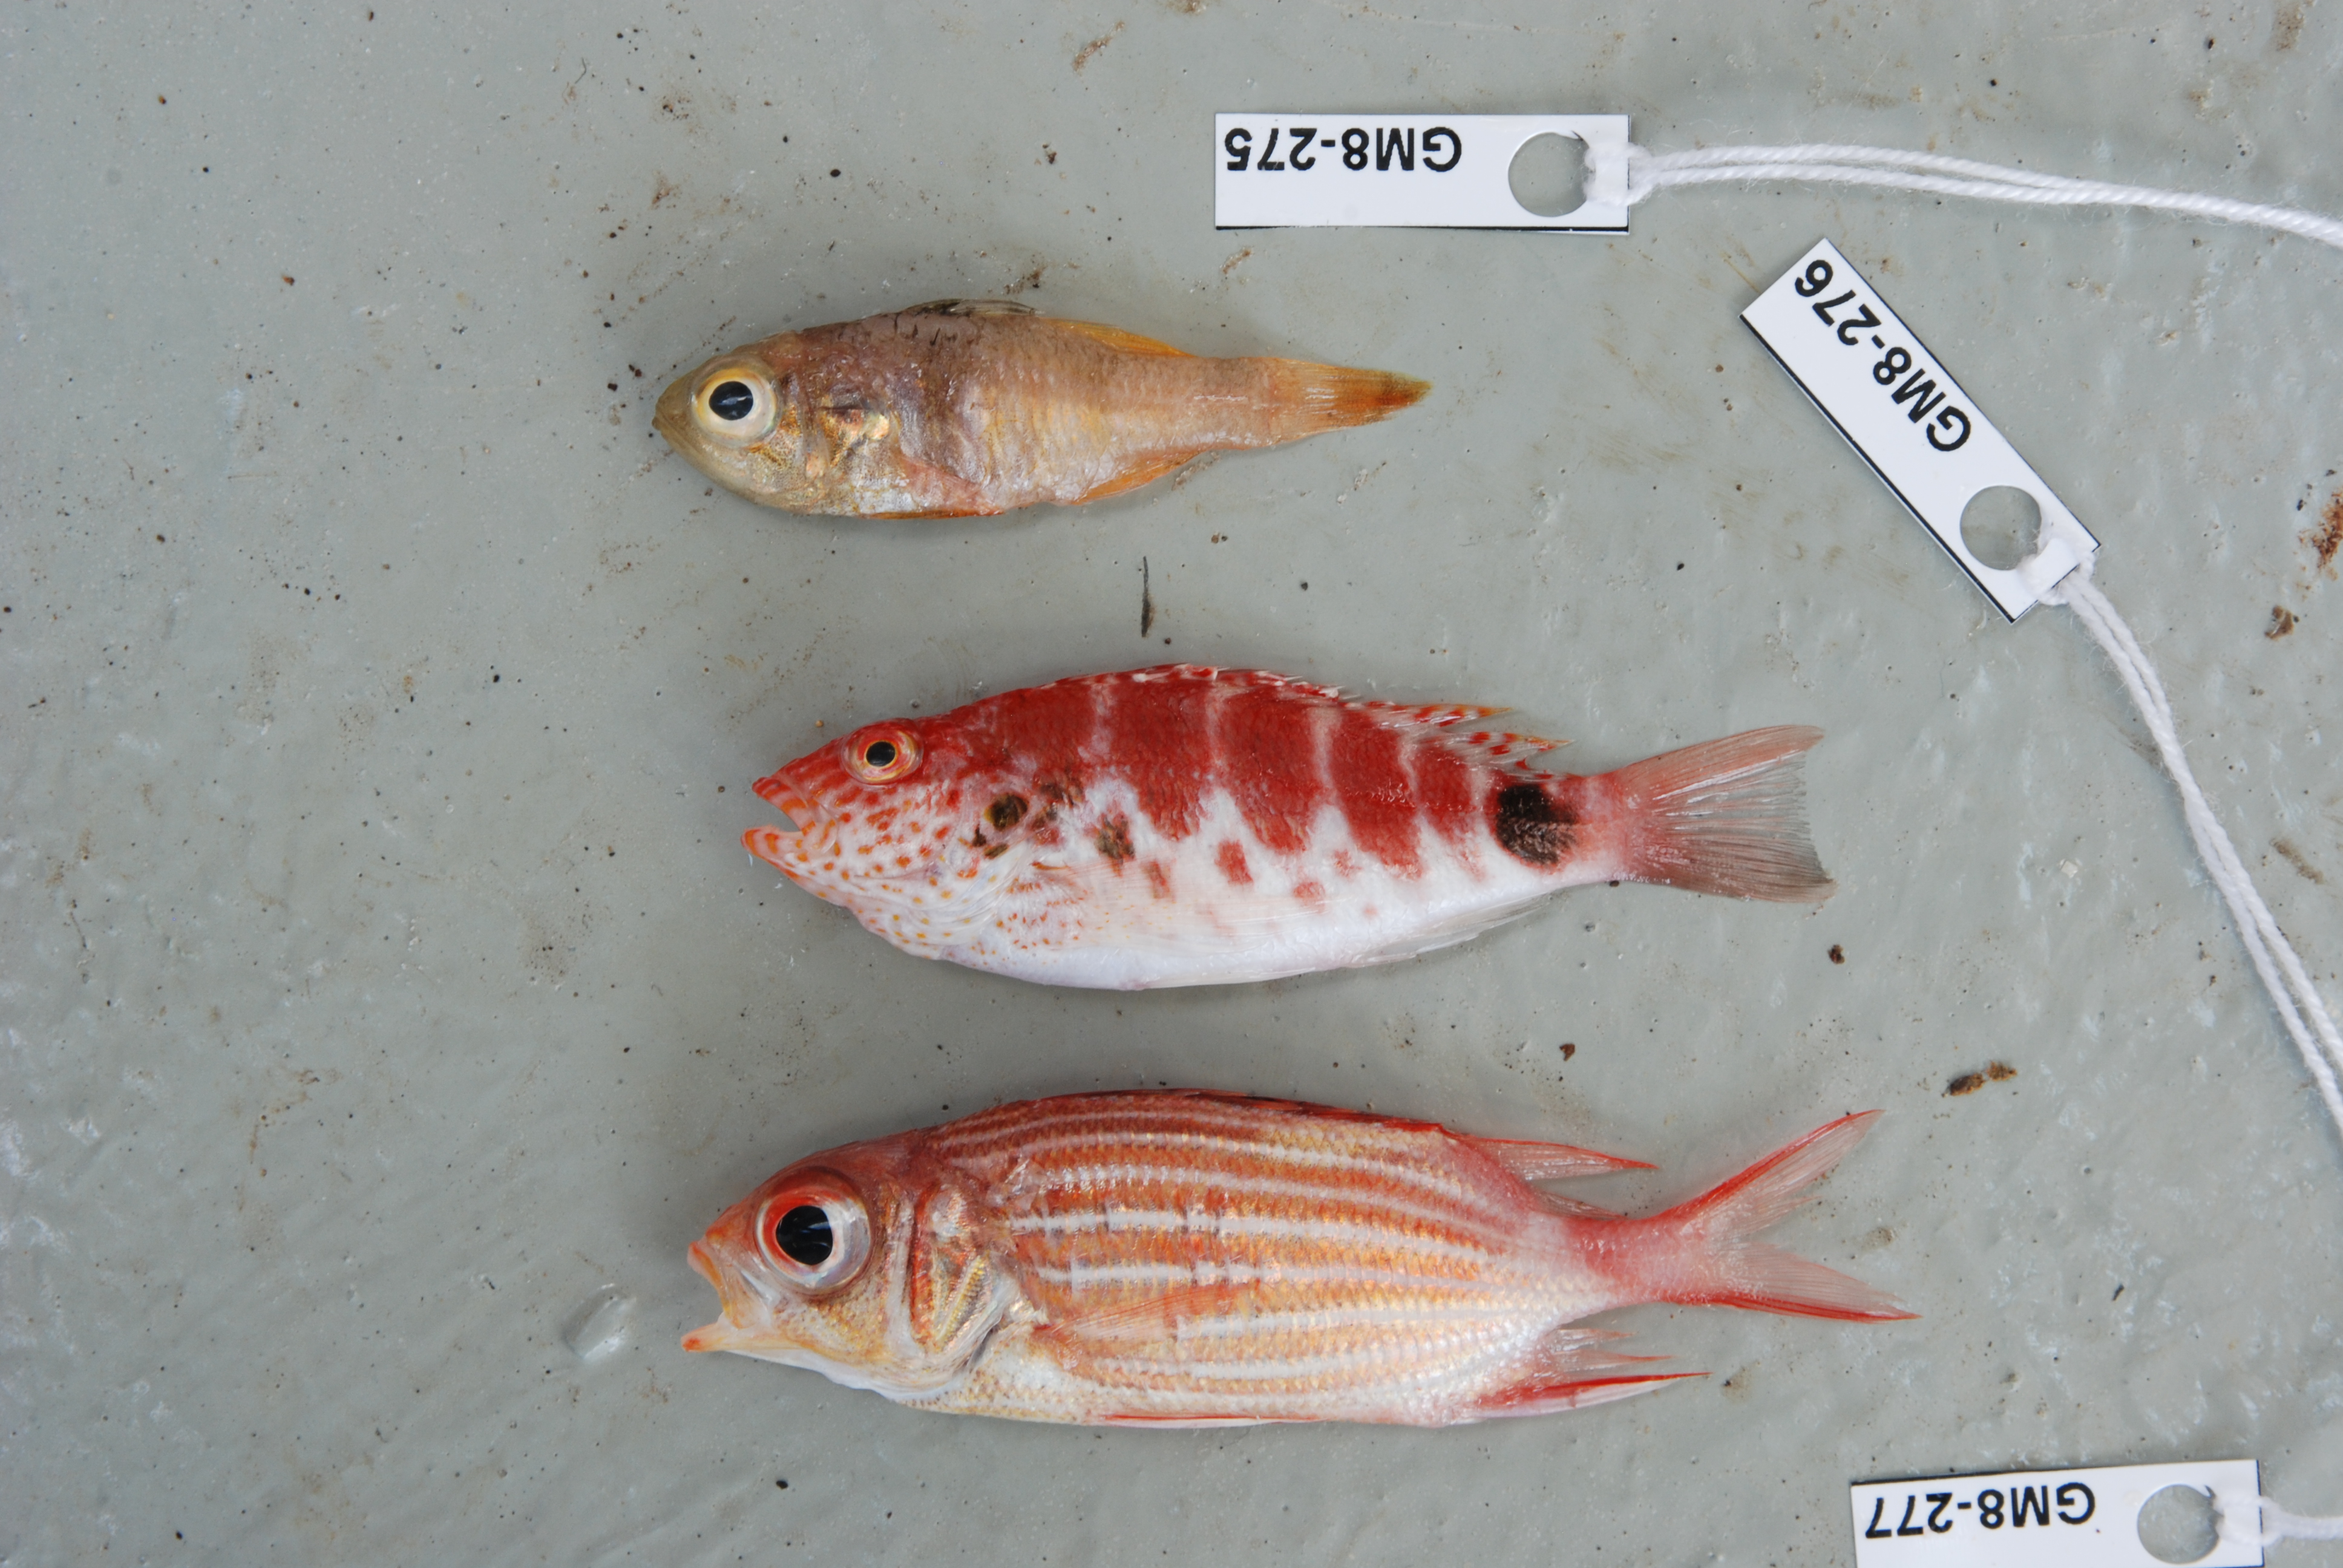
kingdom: Animalia
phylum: Chordata
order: Perciformes
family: Cirrhitidae
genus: Cirrhitops
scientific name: Cirrhitops fasciatus
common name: Redbarred hawkfish
